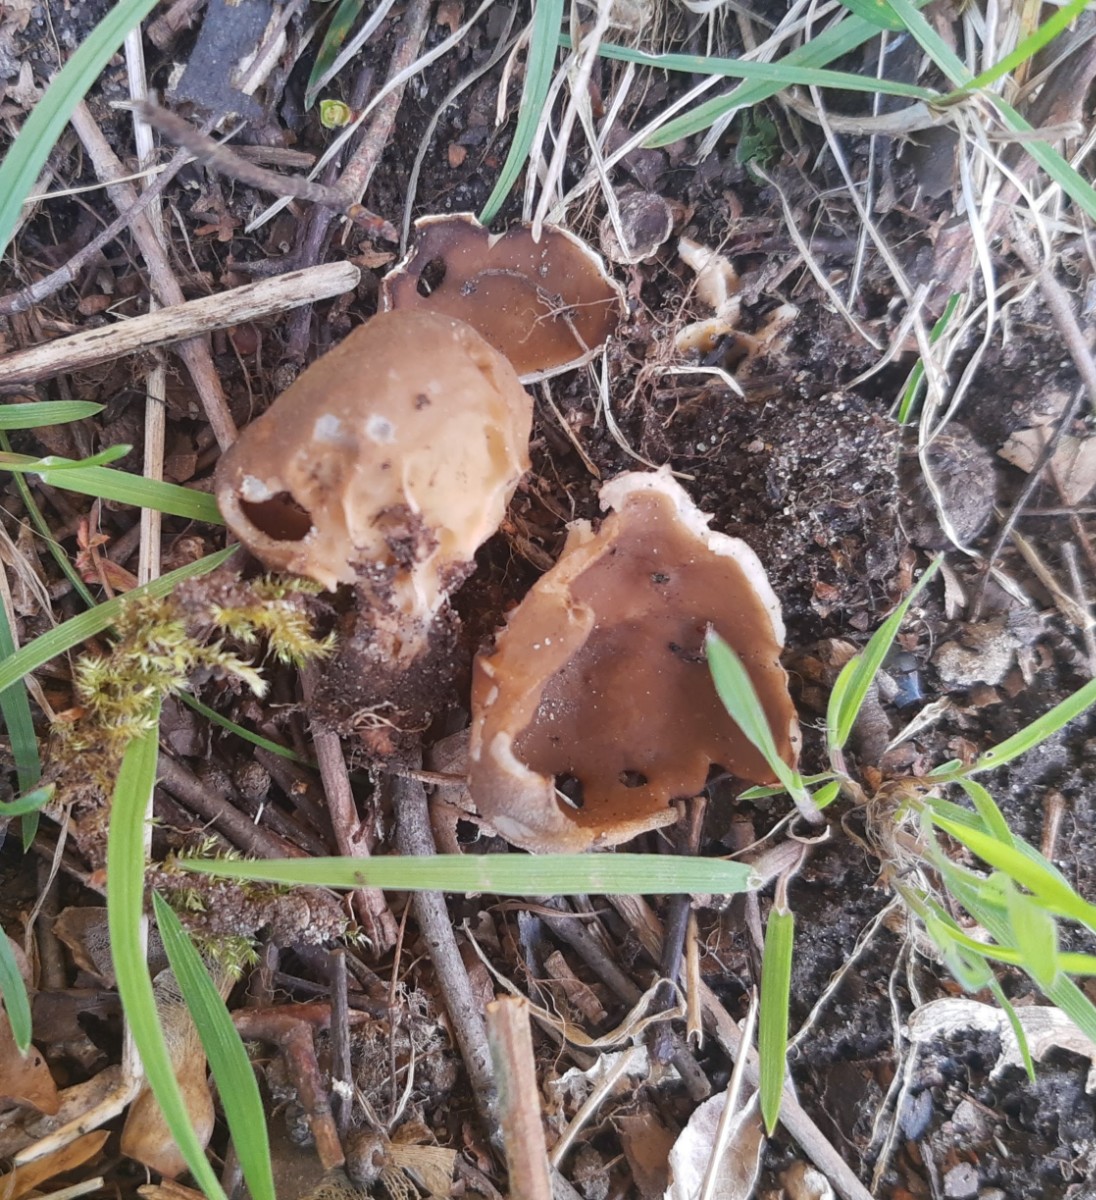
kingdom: Fungi
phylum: Ascomycota
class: Pezizomycetes
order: Pezizales
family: Helvellaceae
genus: Helvella
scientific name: Helvella acetabulum
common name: pokal-foldhat
